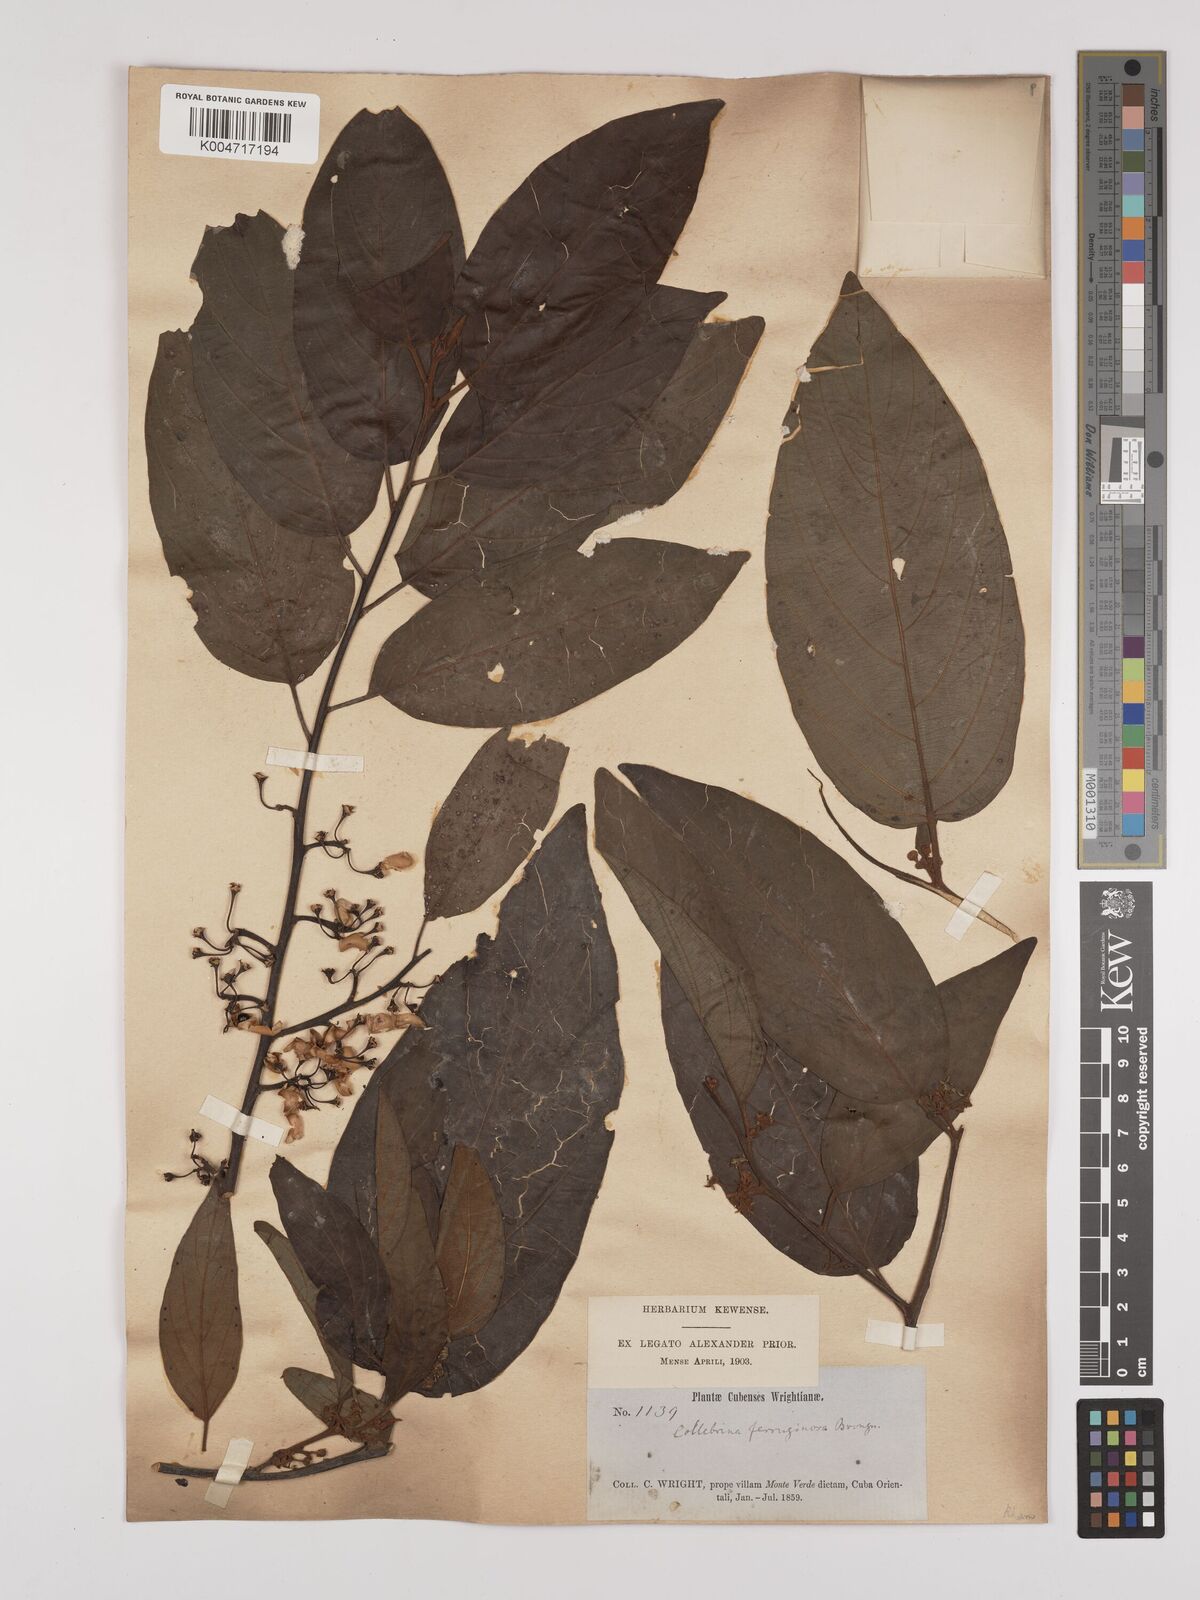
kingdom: Plantae
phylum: Tracheophyta
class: Magnoliopsida
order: Rosales
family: Rhamnaceae
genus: Colubrina
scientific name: Colubrina arborescens
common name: Wild coffee
